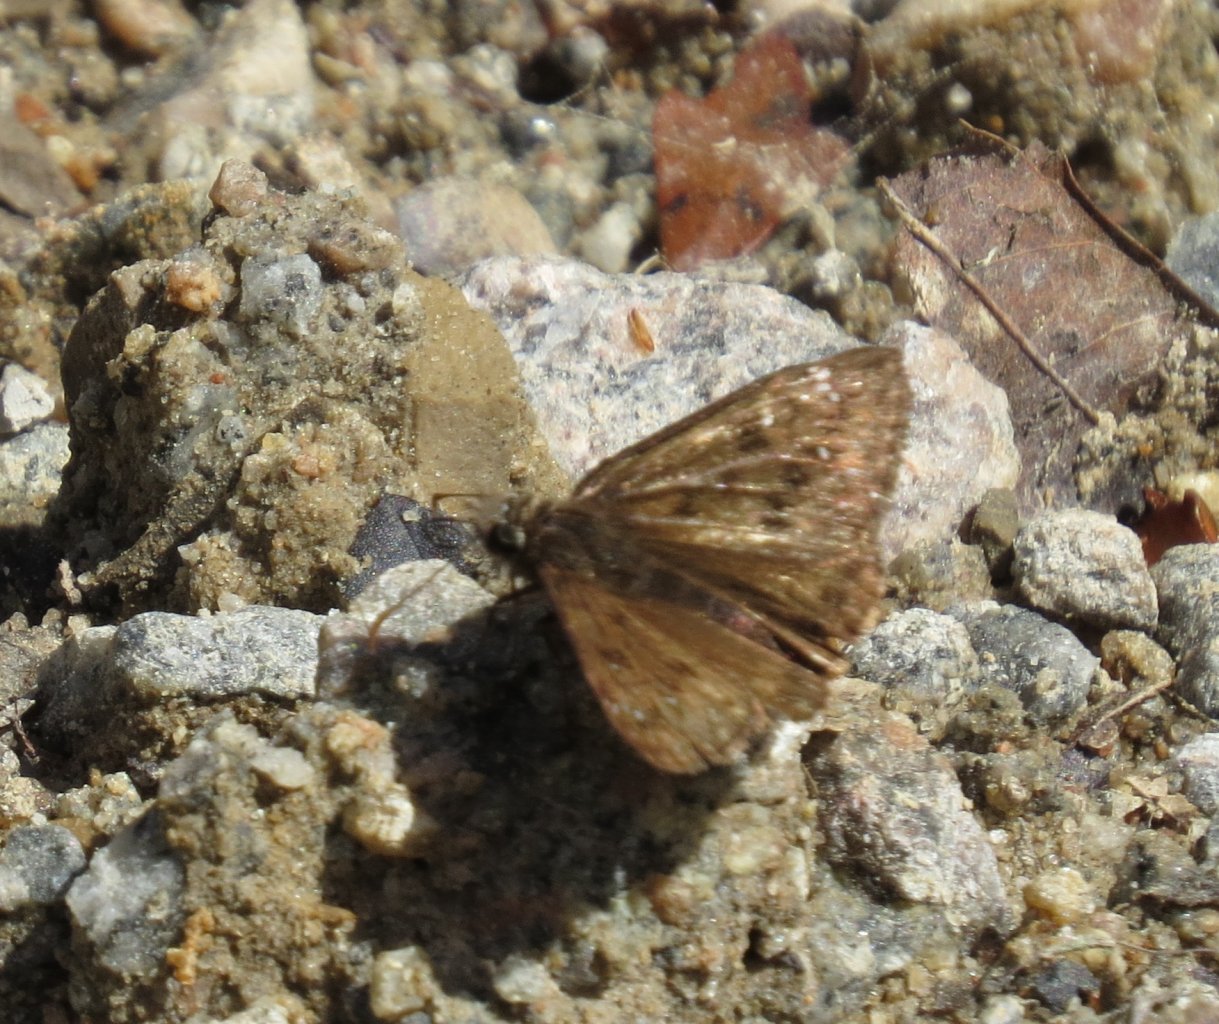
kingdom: Animalia
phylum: Arthropoda
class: Insecta
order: Lepidoptera
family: Hesperiidae
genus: Gesta
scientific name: Gesta
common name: Juvenal's Duskywing
